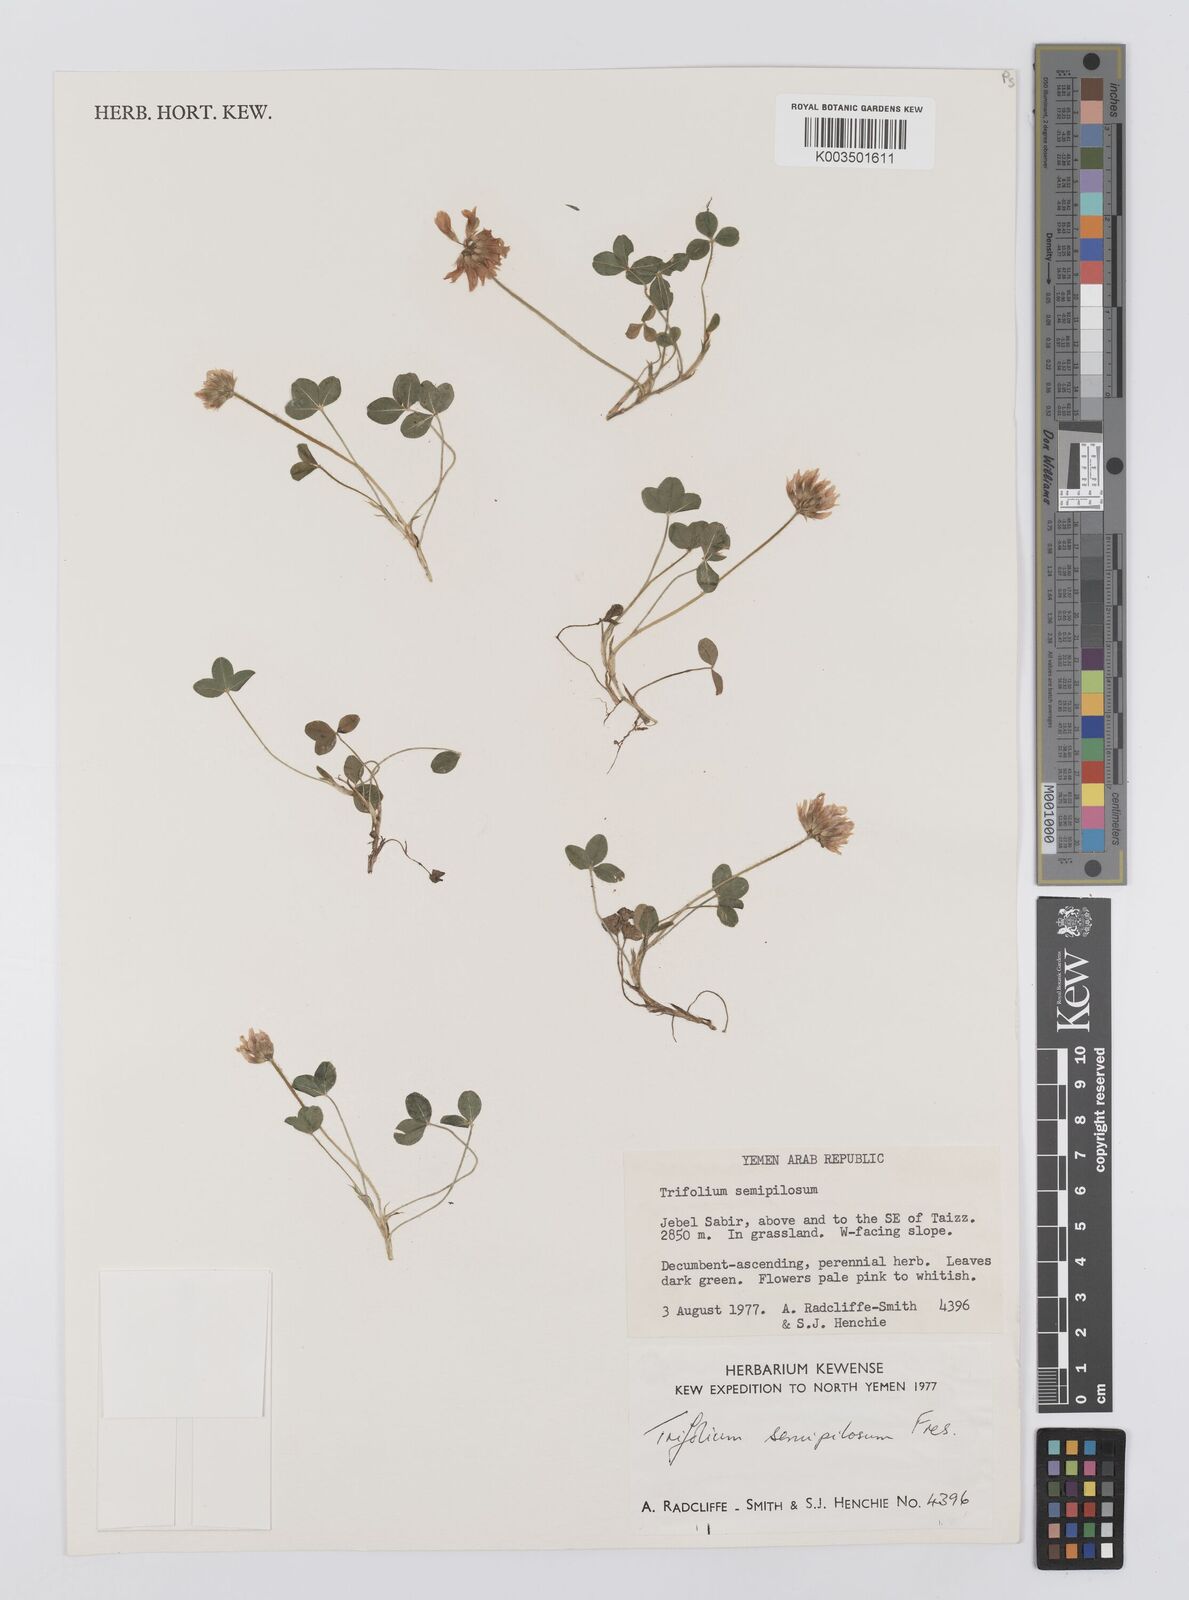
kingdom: Plantae
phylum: Tracheophyta
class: Magnoliopsida
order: Fabales
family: Fabaceae
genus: Trifolium
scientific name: Trifolium semipilosum
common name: Kenya clover
